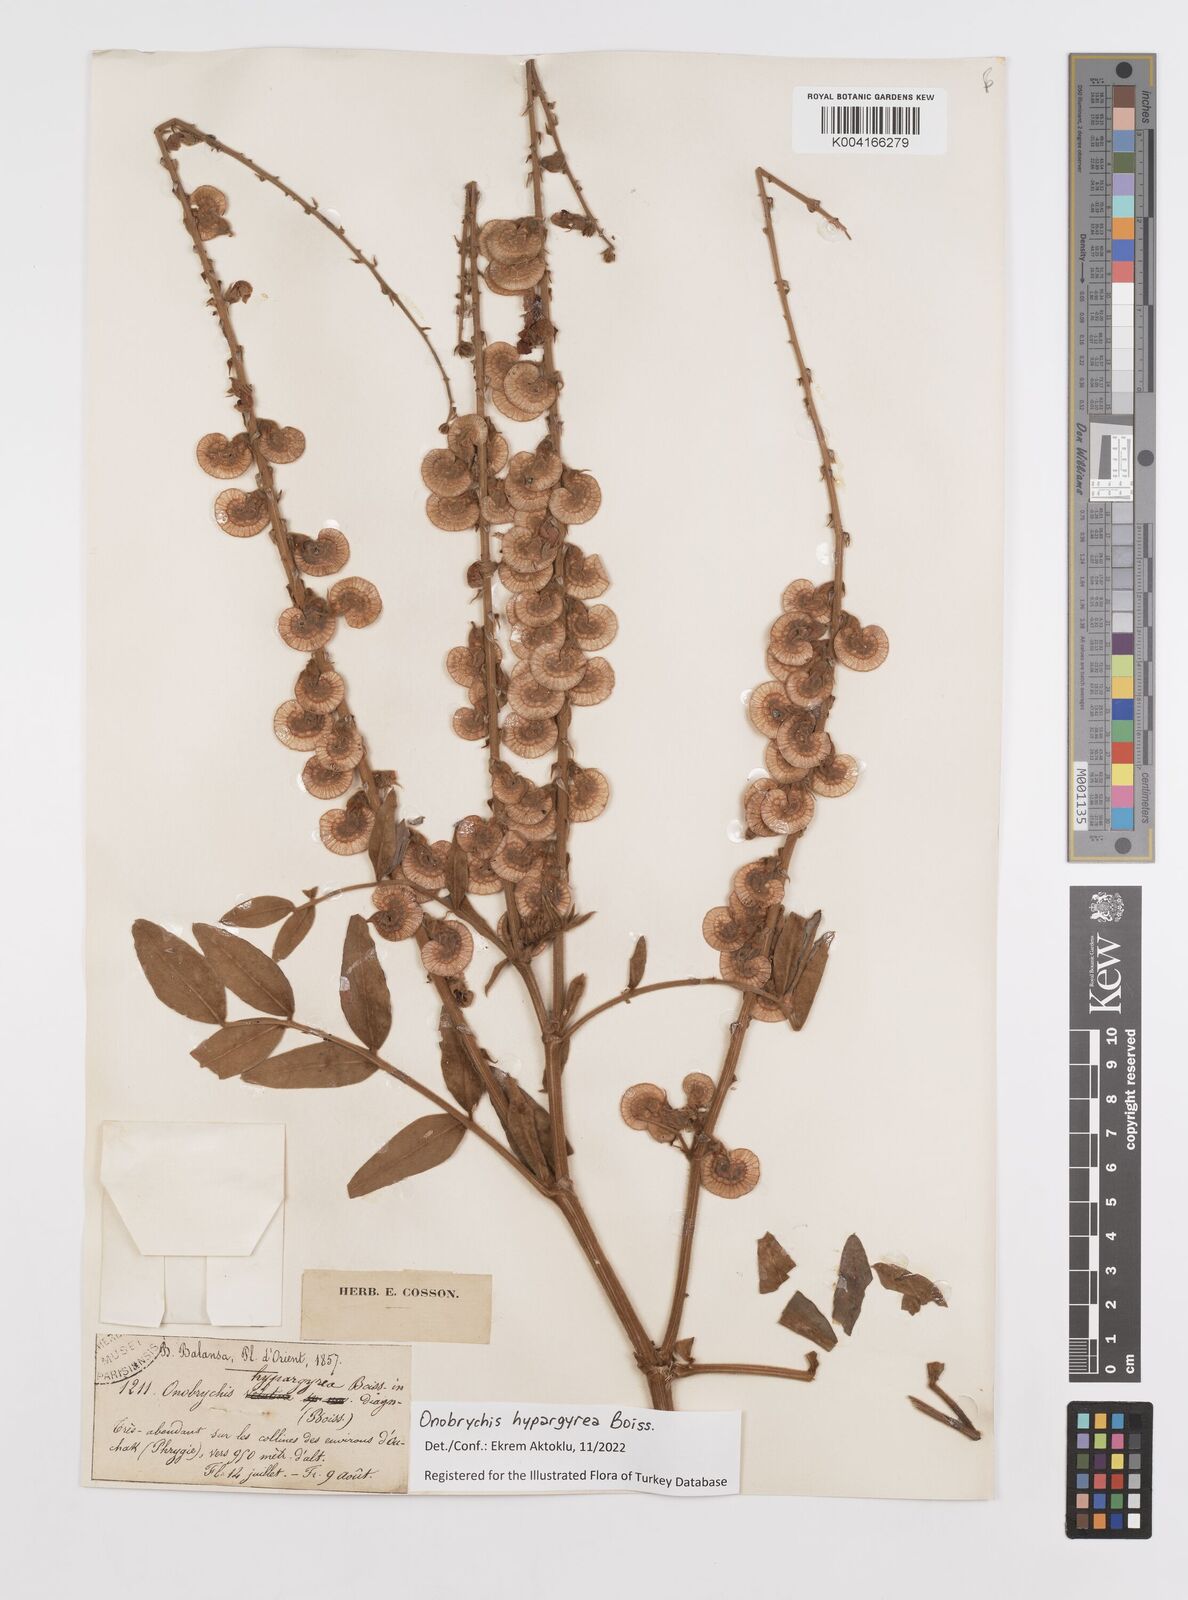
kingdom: Plantae
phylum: Tracheophyta
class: Magnoliopsida
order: Fabales
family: Fabaceae
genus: Onobrychis
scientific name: Onobrychis hypargyrea
